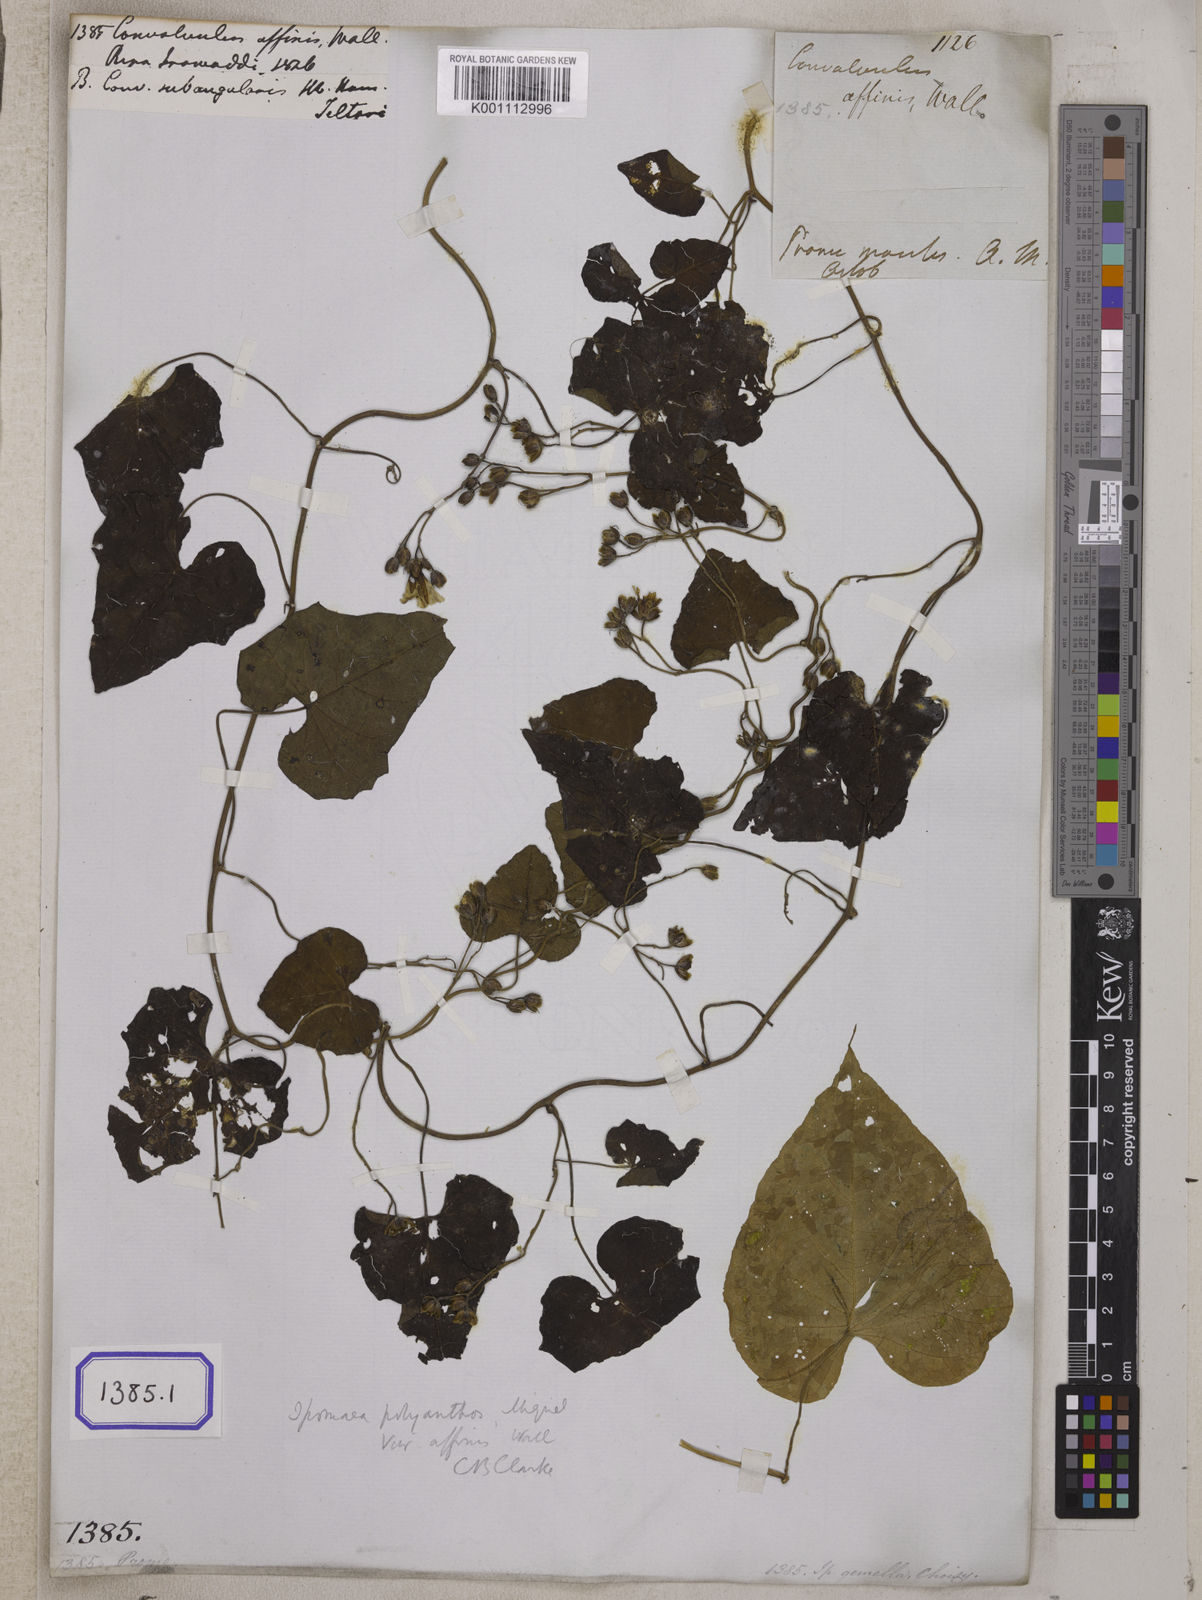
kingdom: Plantae
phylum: Tracheophyta
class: Magnoliopsida
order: Solanales
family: Convolvulaceae
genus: Convolvulus
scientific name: Convolvulus
